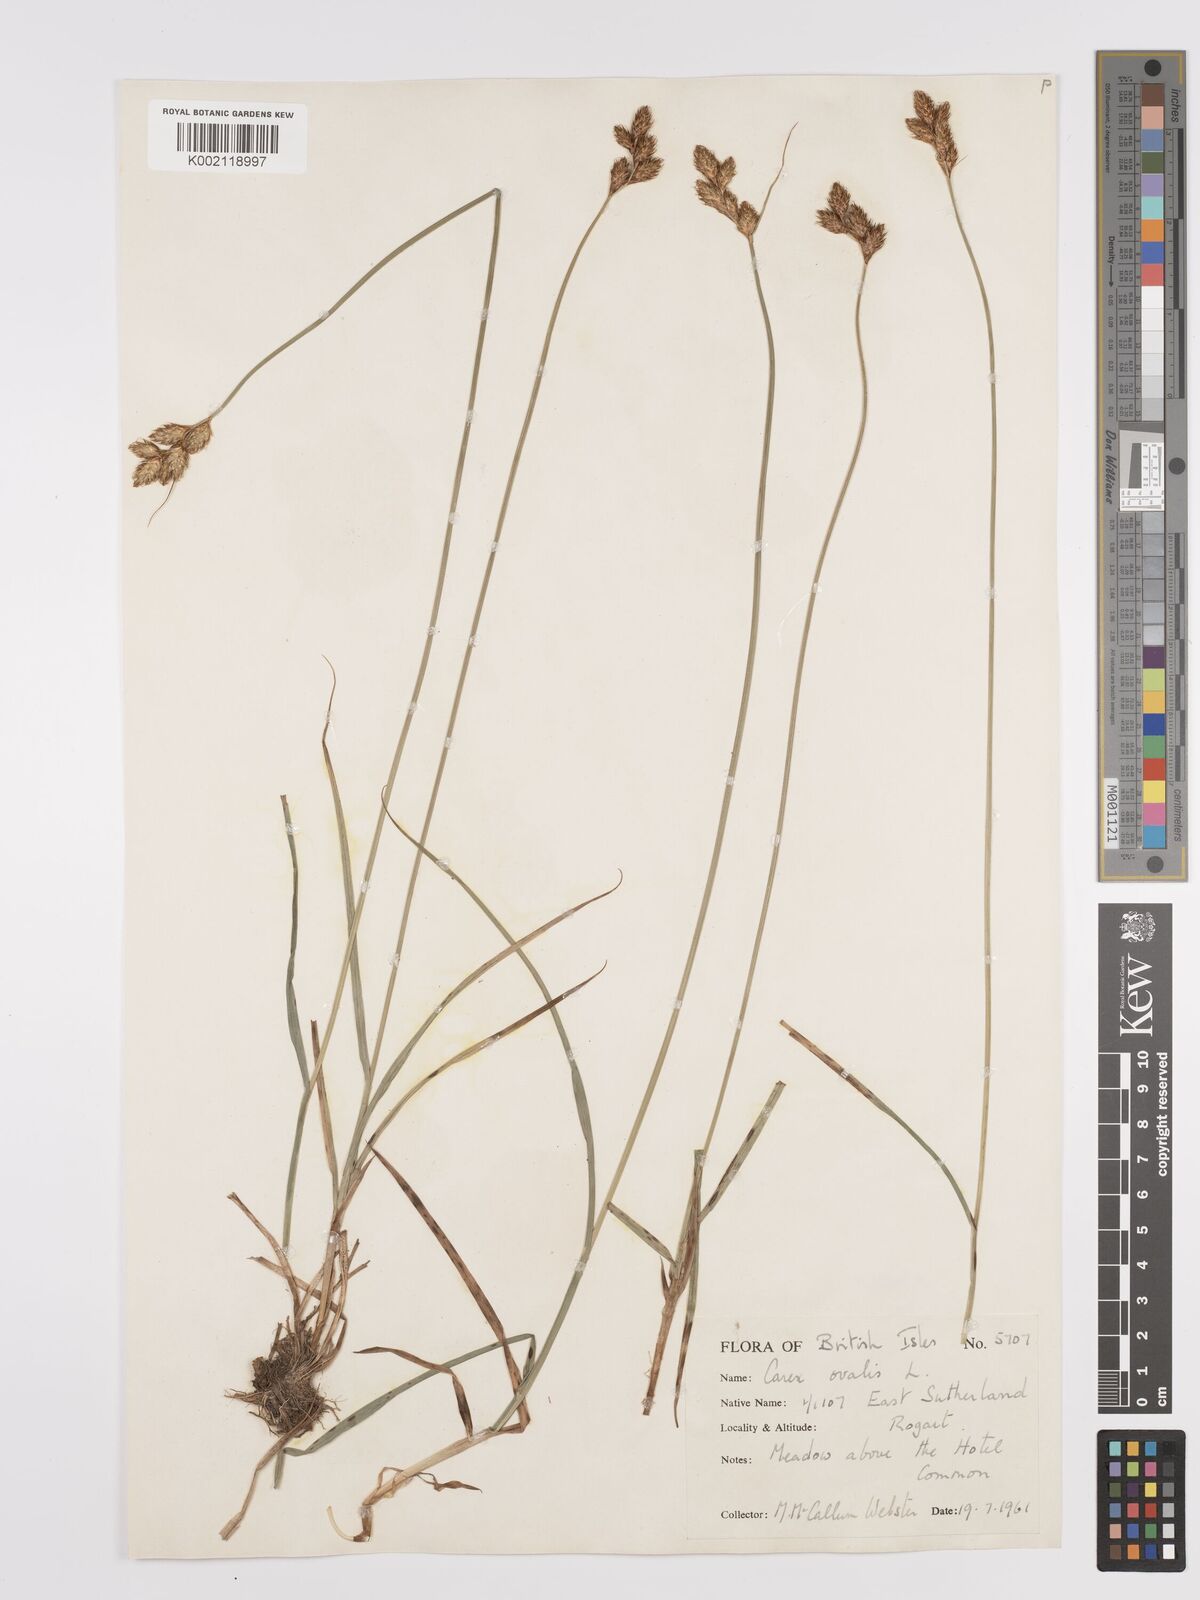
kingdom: Plantae
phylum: Tracheophyta
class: Liliopsida
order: Poales
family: Cyperaceae
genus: Carex
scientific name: Carex leporina
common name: Oval sedge
